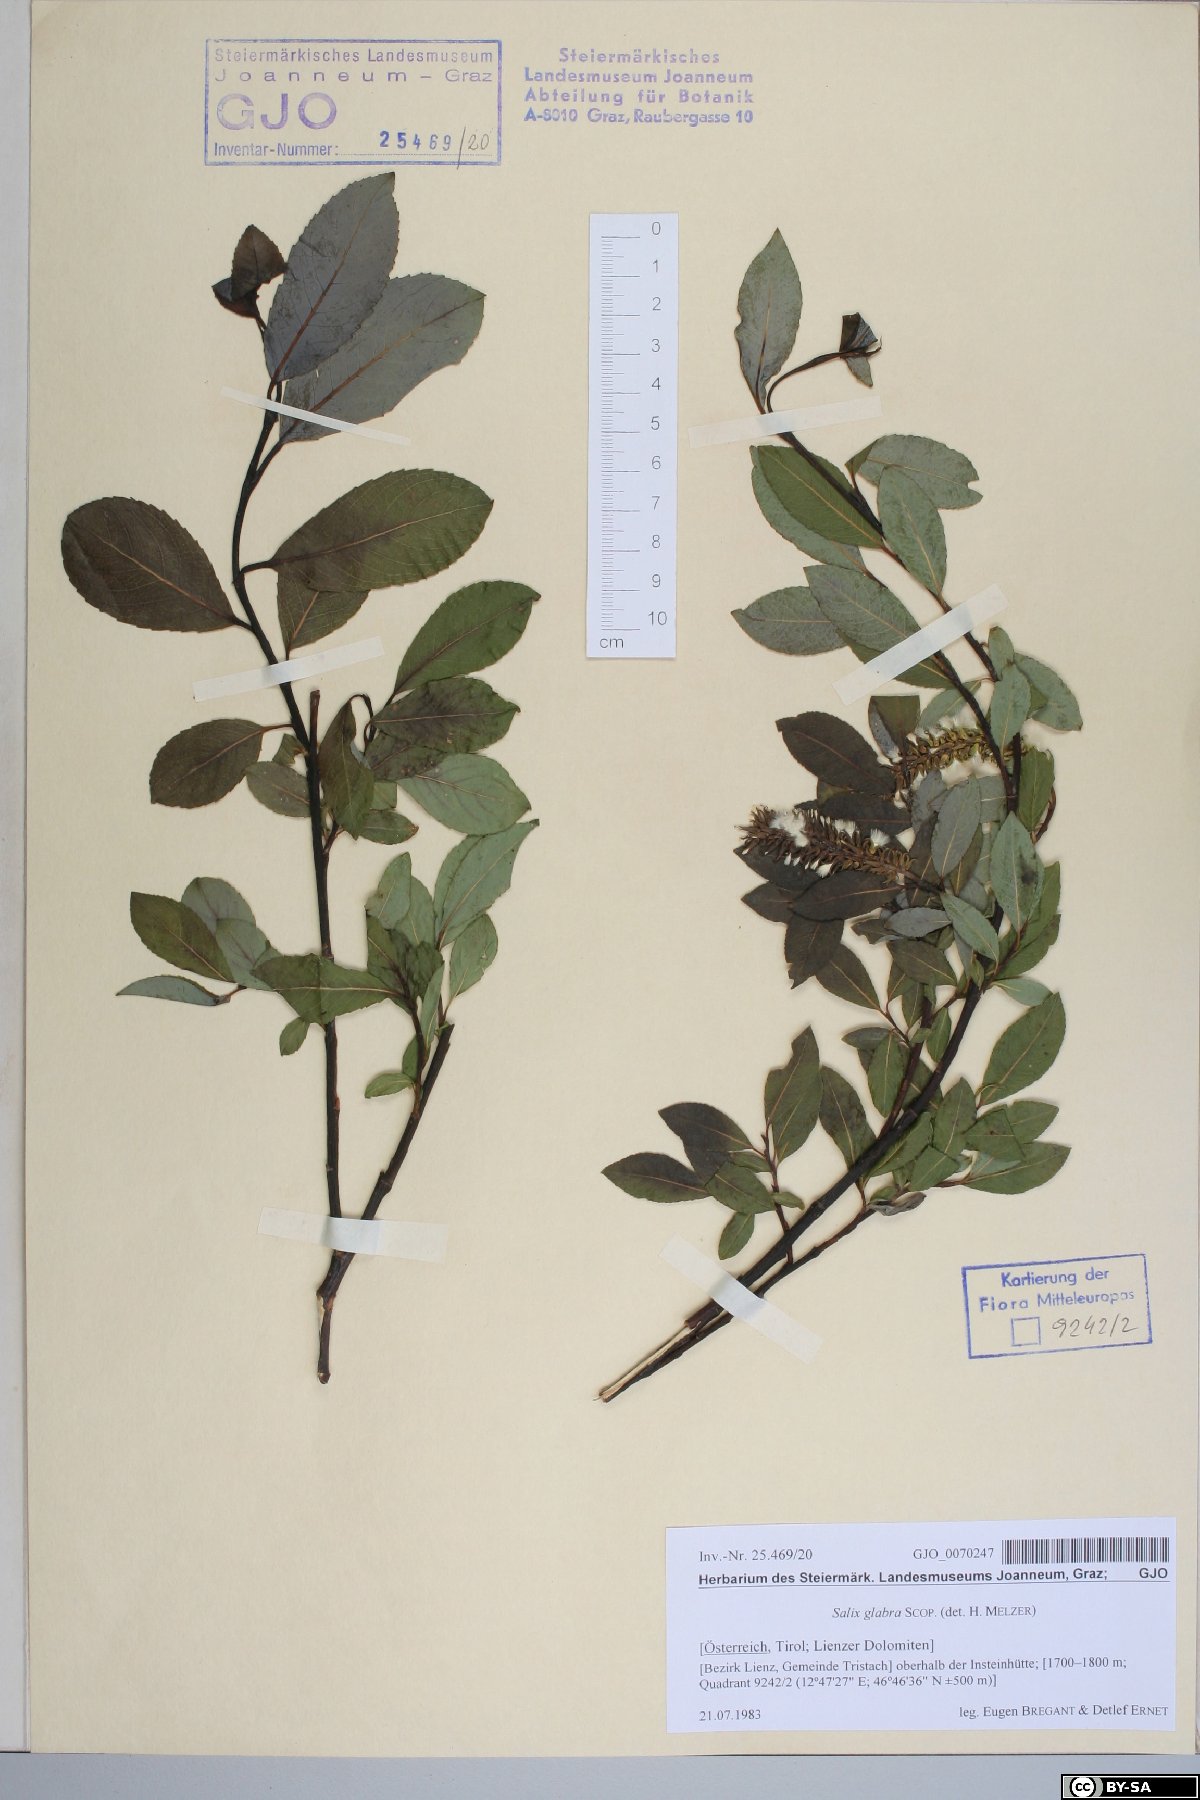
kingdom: Plantae
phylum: Tracheophyta
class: Magnoliopsida
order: Malpighiales
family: Salicaceae
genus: Salix
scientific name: Salix glabra
